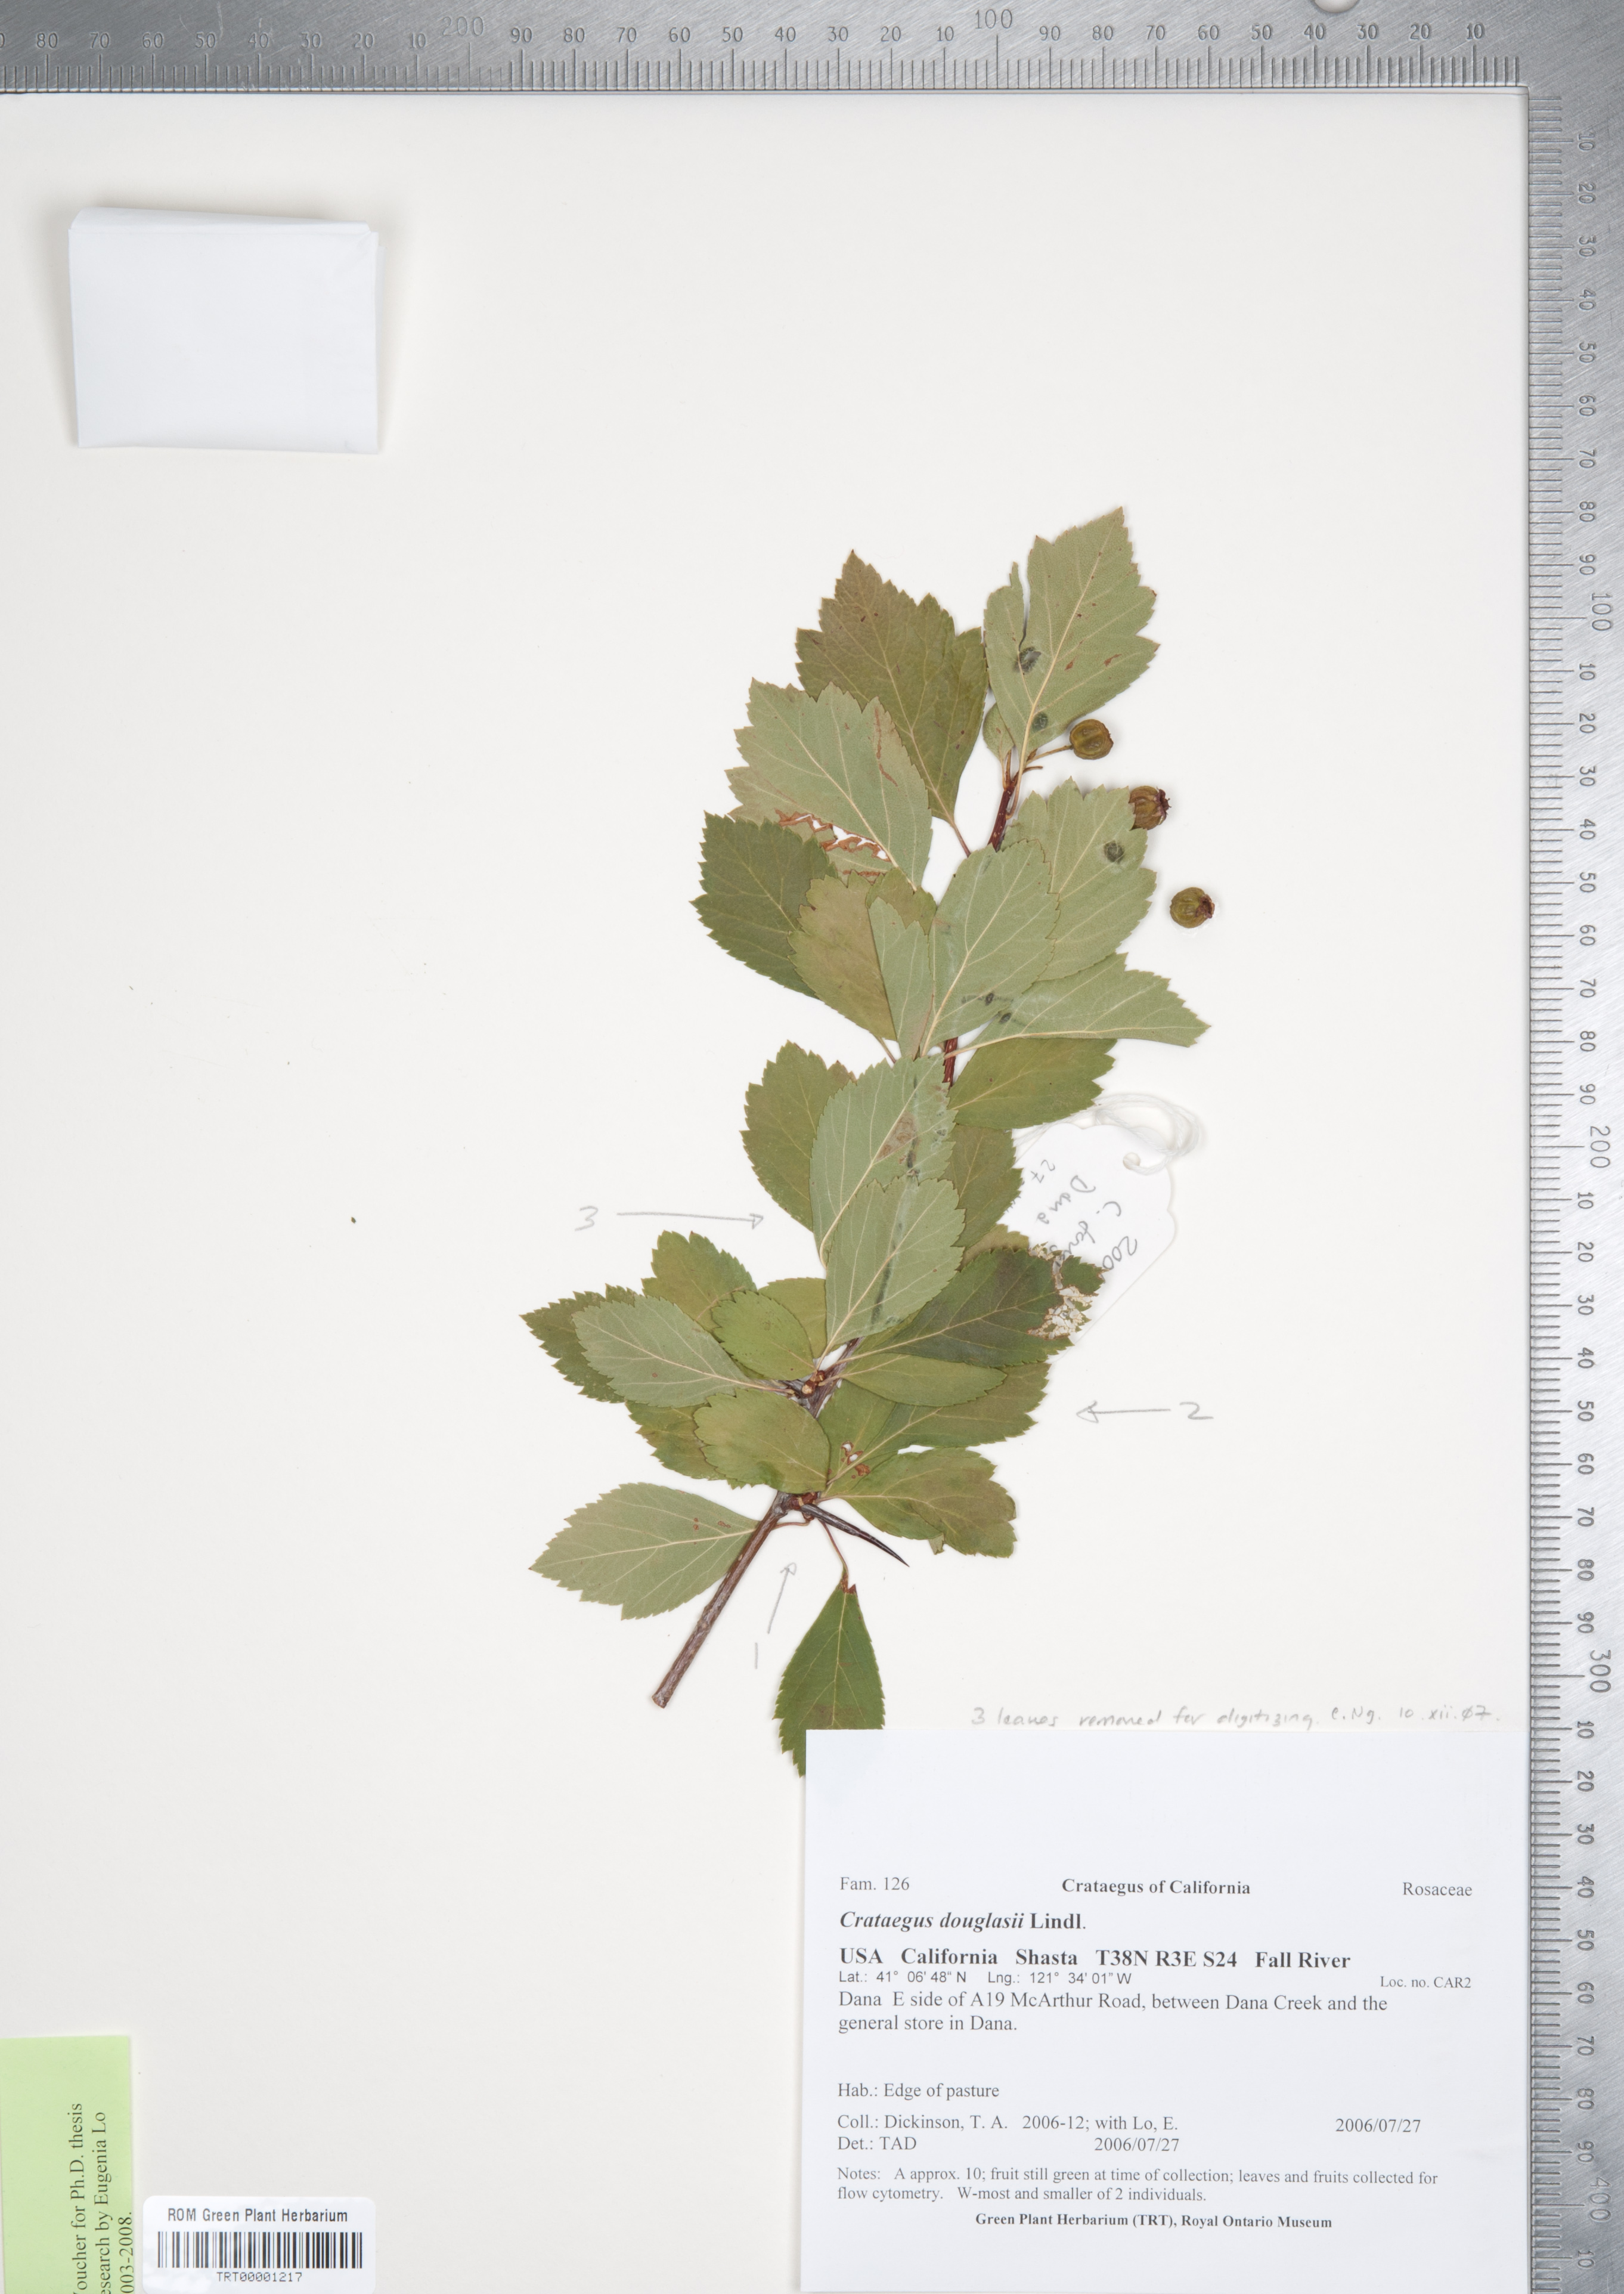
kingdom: Plantae
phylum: Tracheophyta
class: Magnoliopsida
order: Rosales
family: Rosaceae
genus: Crataegus
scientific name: Crataegus douglasii
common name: Black hawthorn
